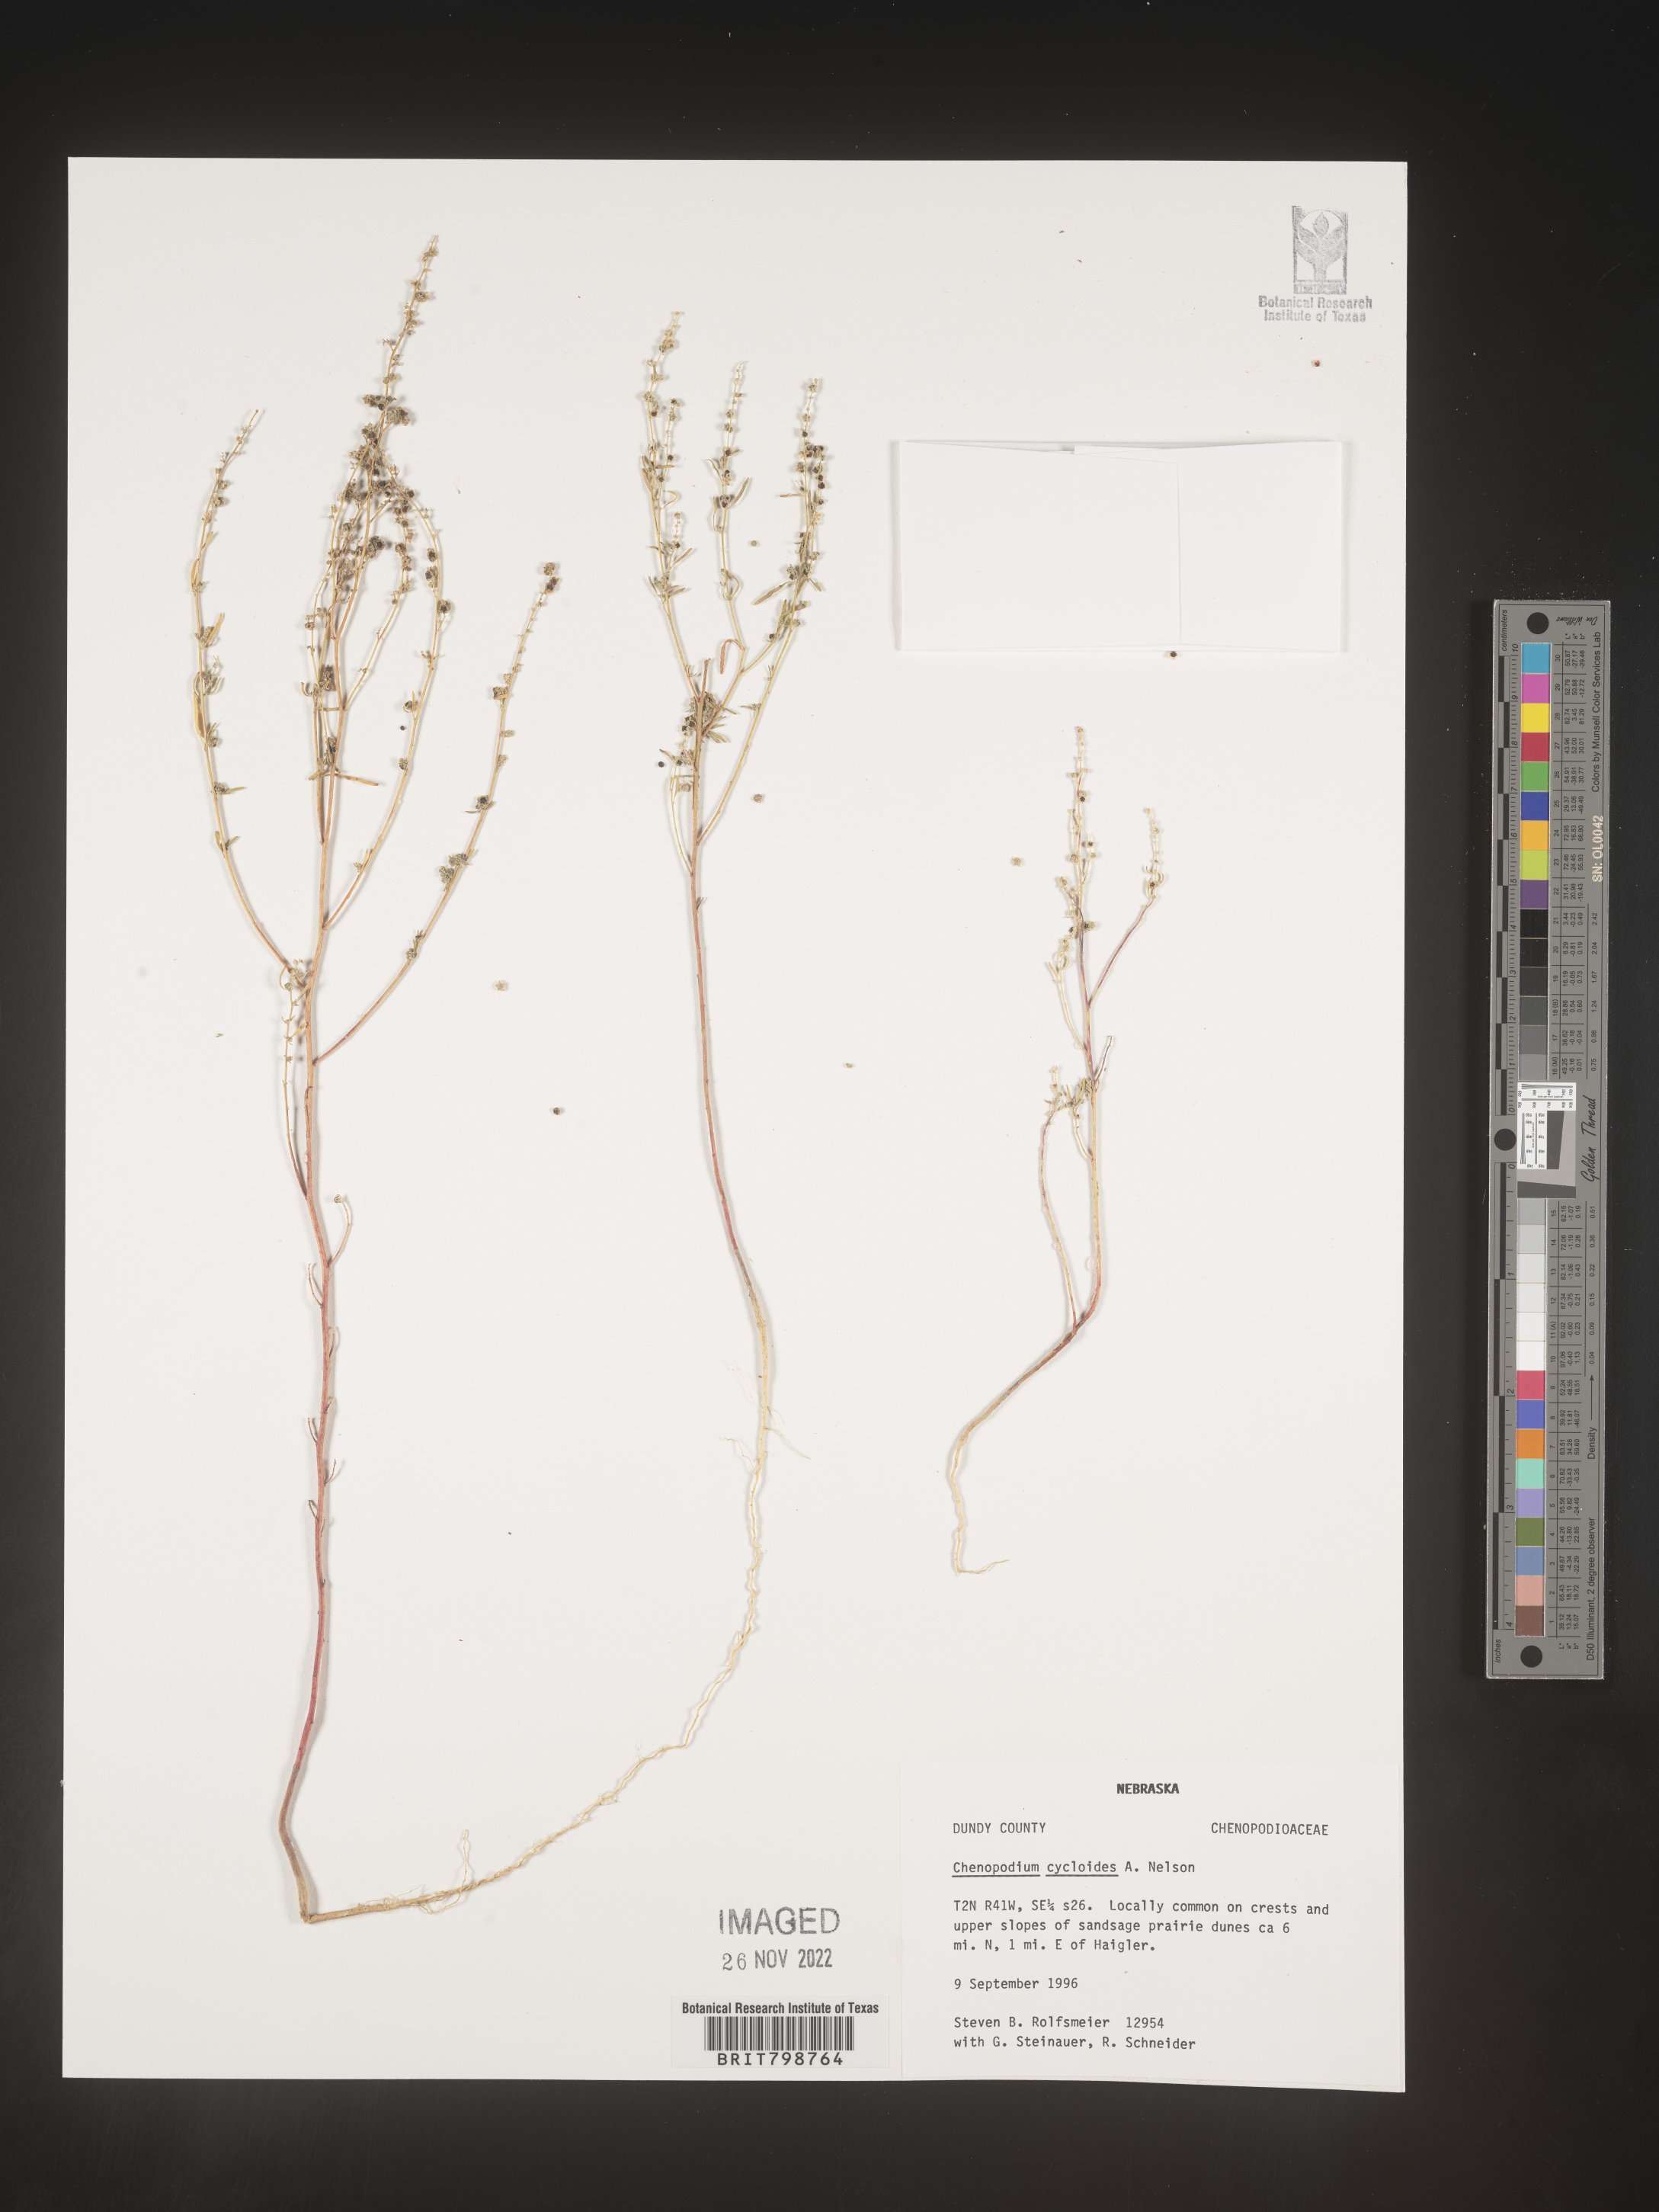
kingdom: Plantae
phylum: Tracheophyta
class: Magnoliopsida
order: Caryophyllales
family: Amaranthaceae
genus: Chenopodium
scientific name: Chenopodium cycloides
